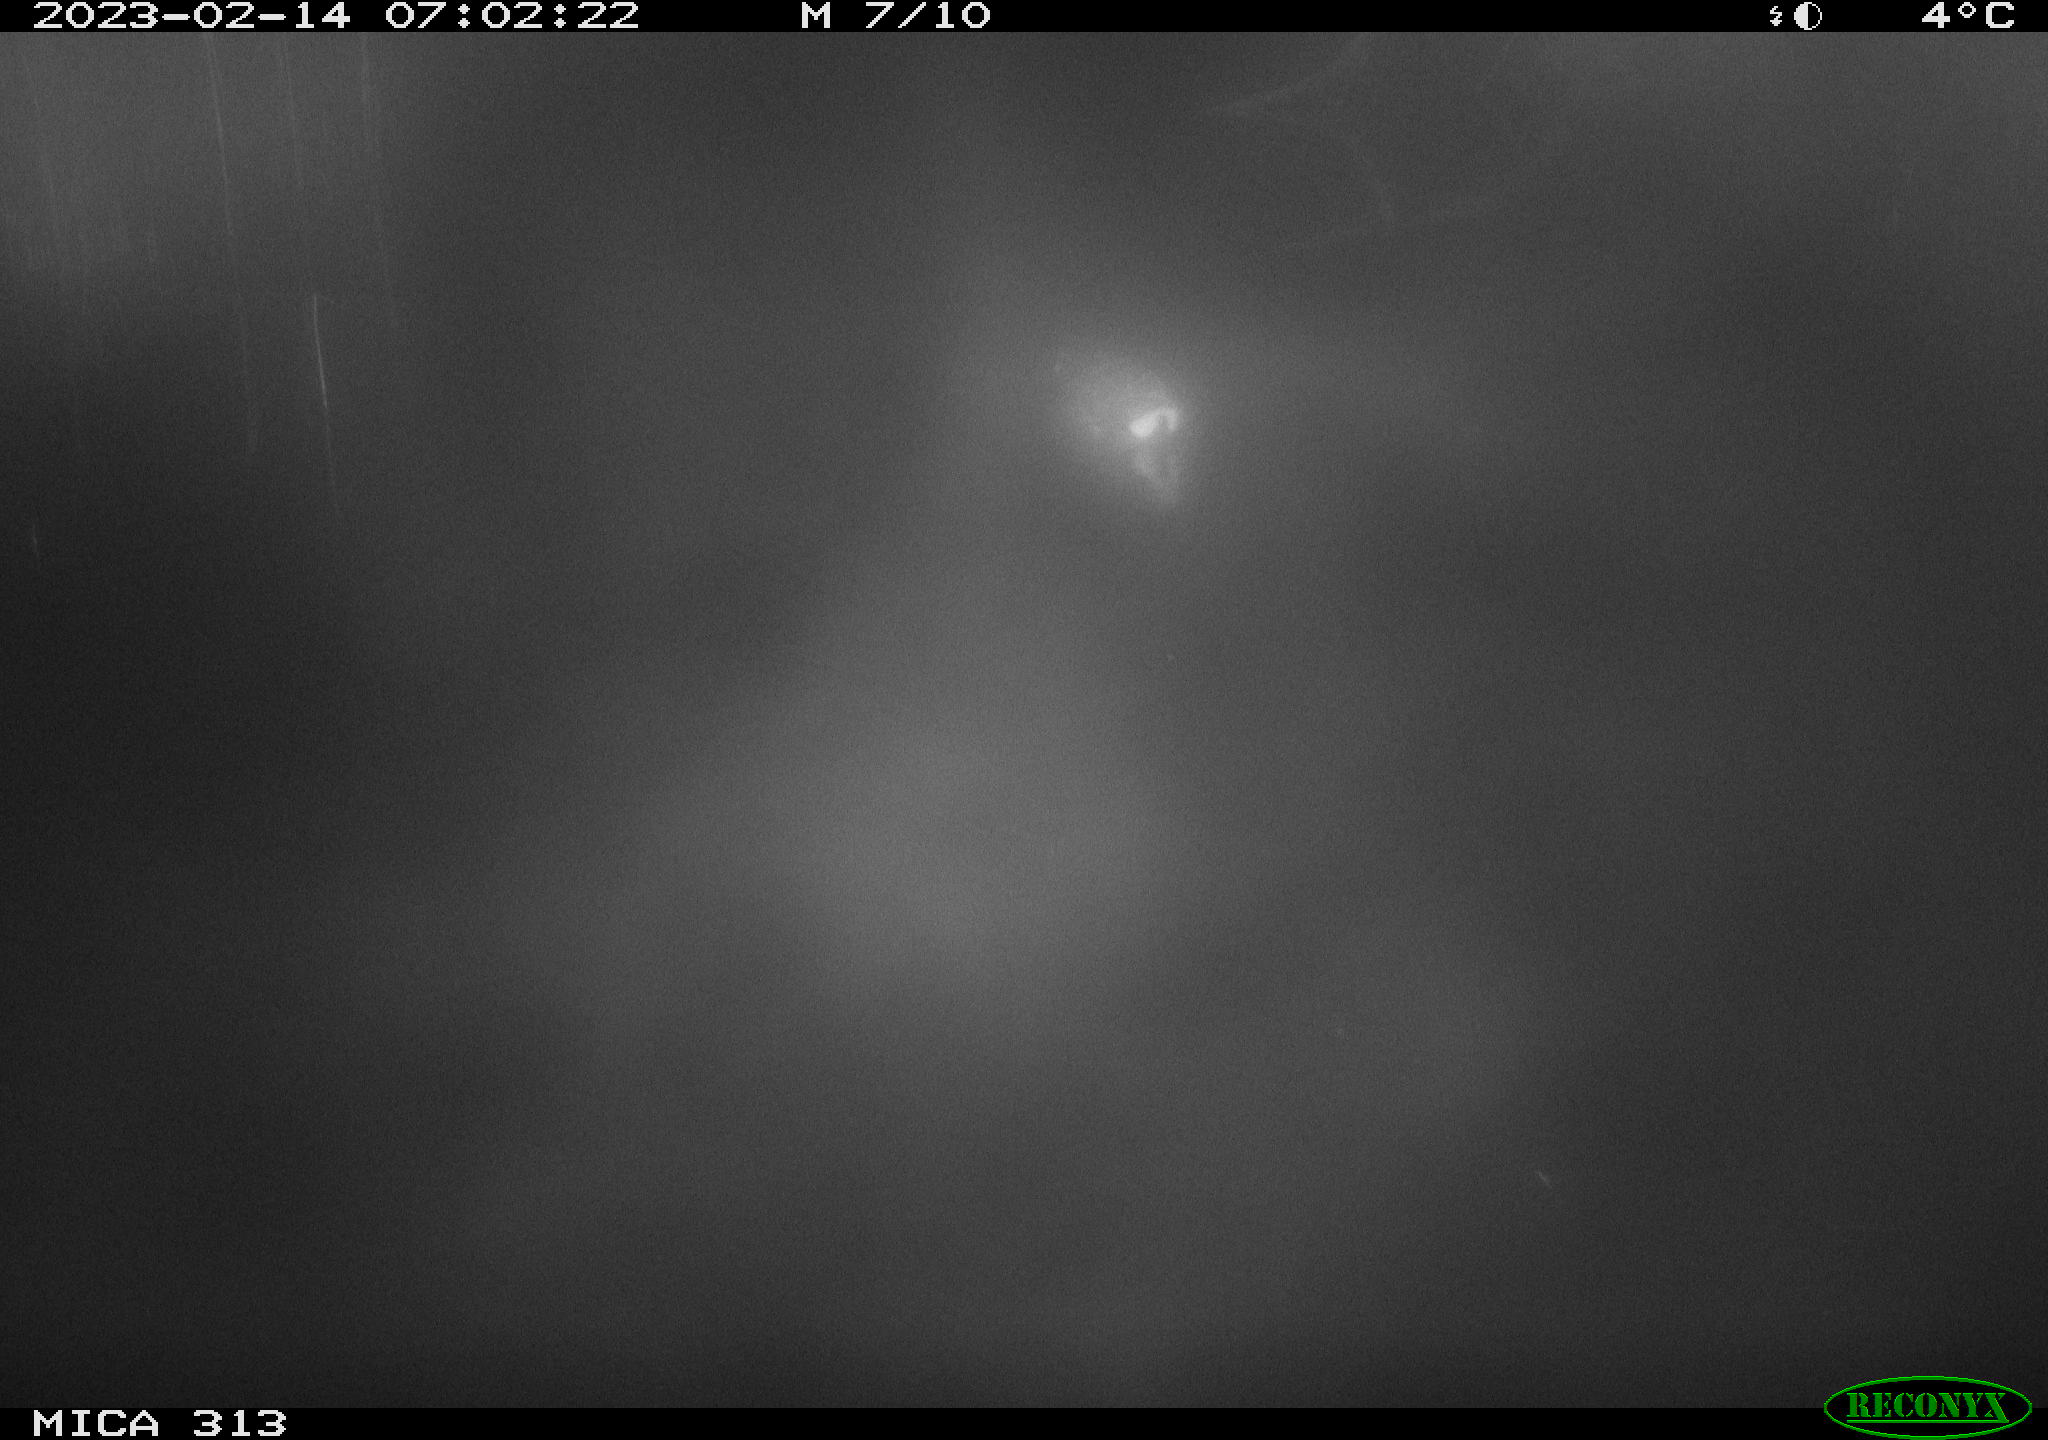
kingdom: Animalia
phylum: Chordata
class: Aves
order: Gruiformes
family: Rallidae
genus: Gallinula
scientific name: Gallinula chloropus
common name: Common moorhen
